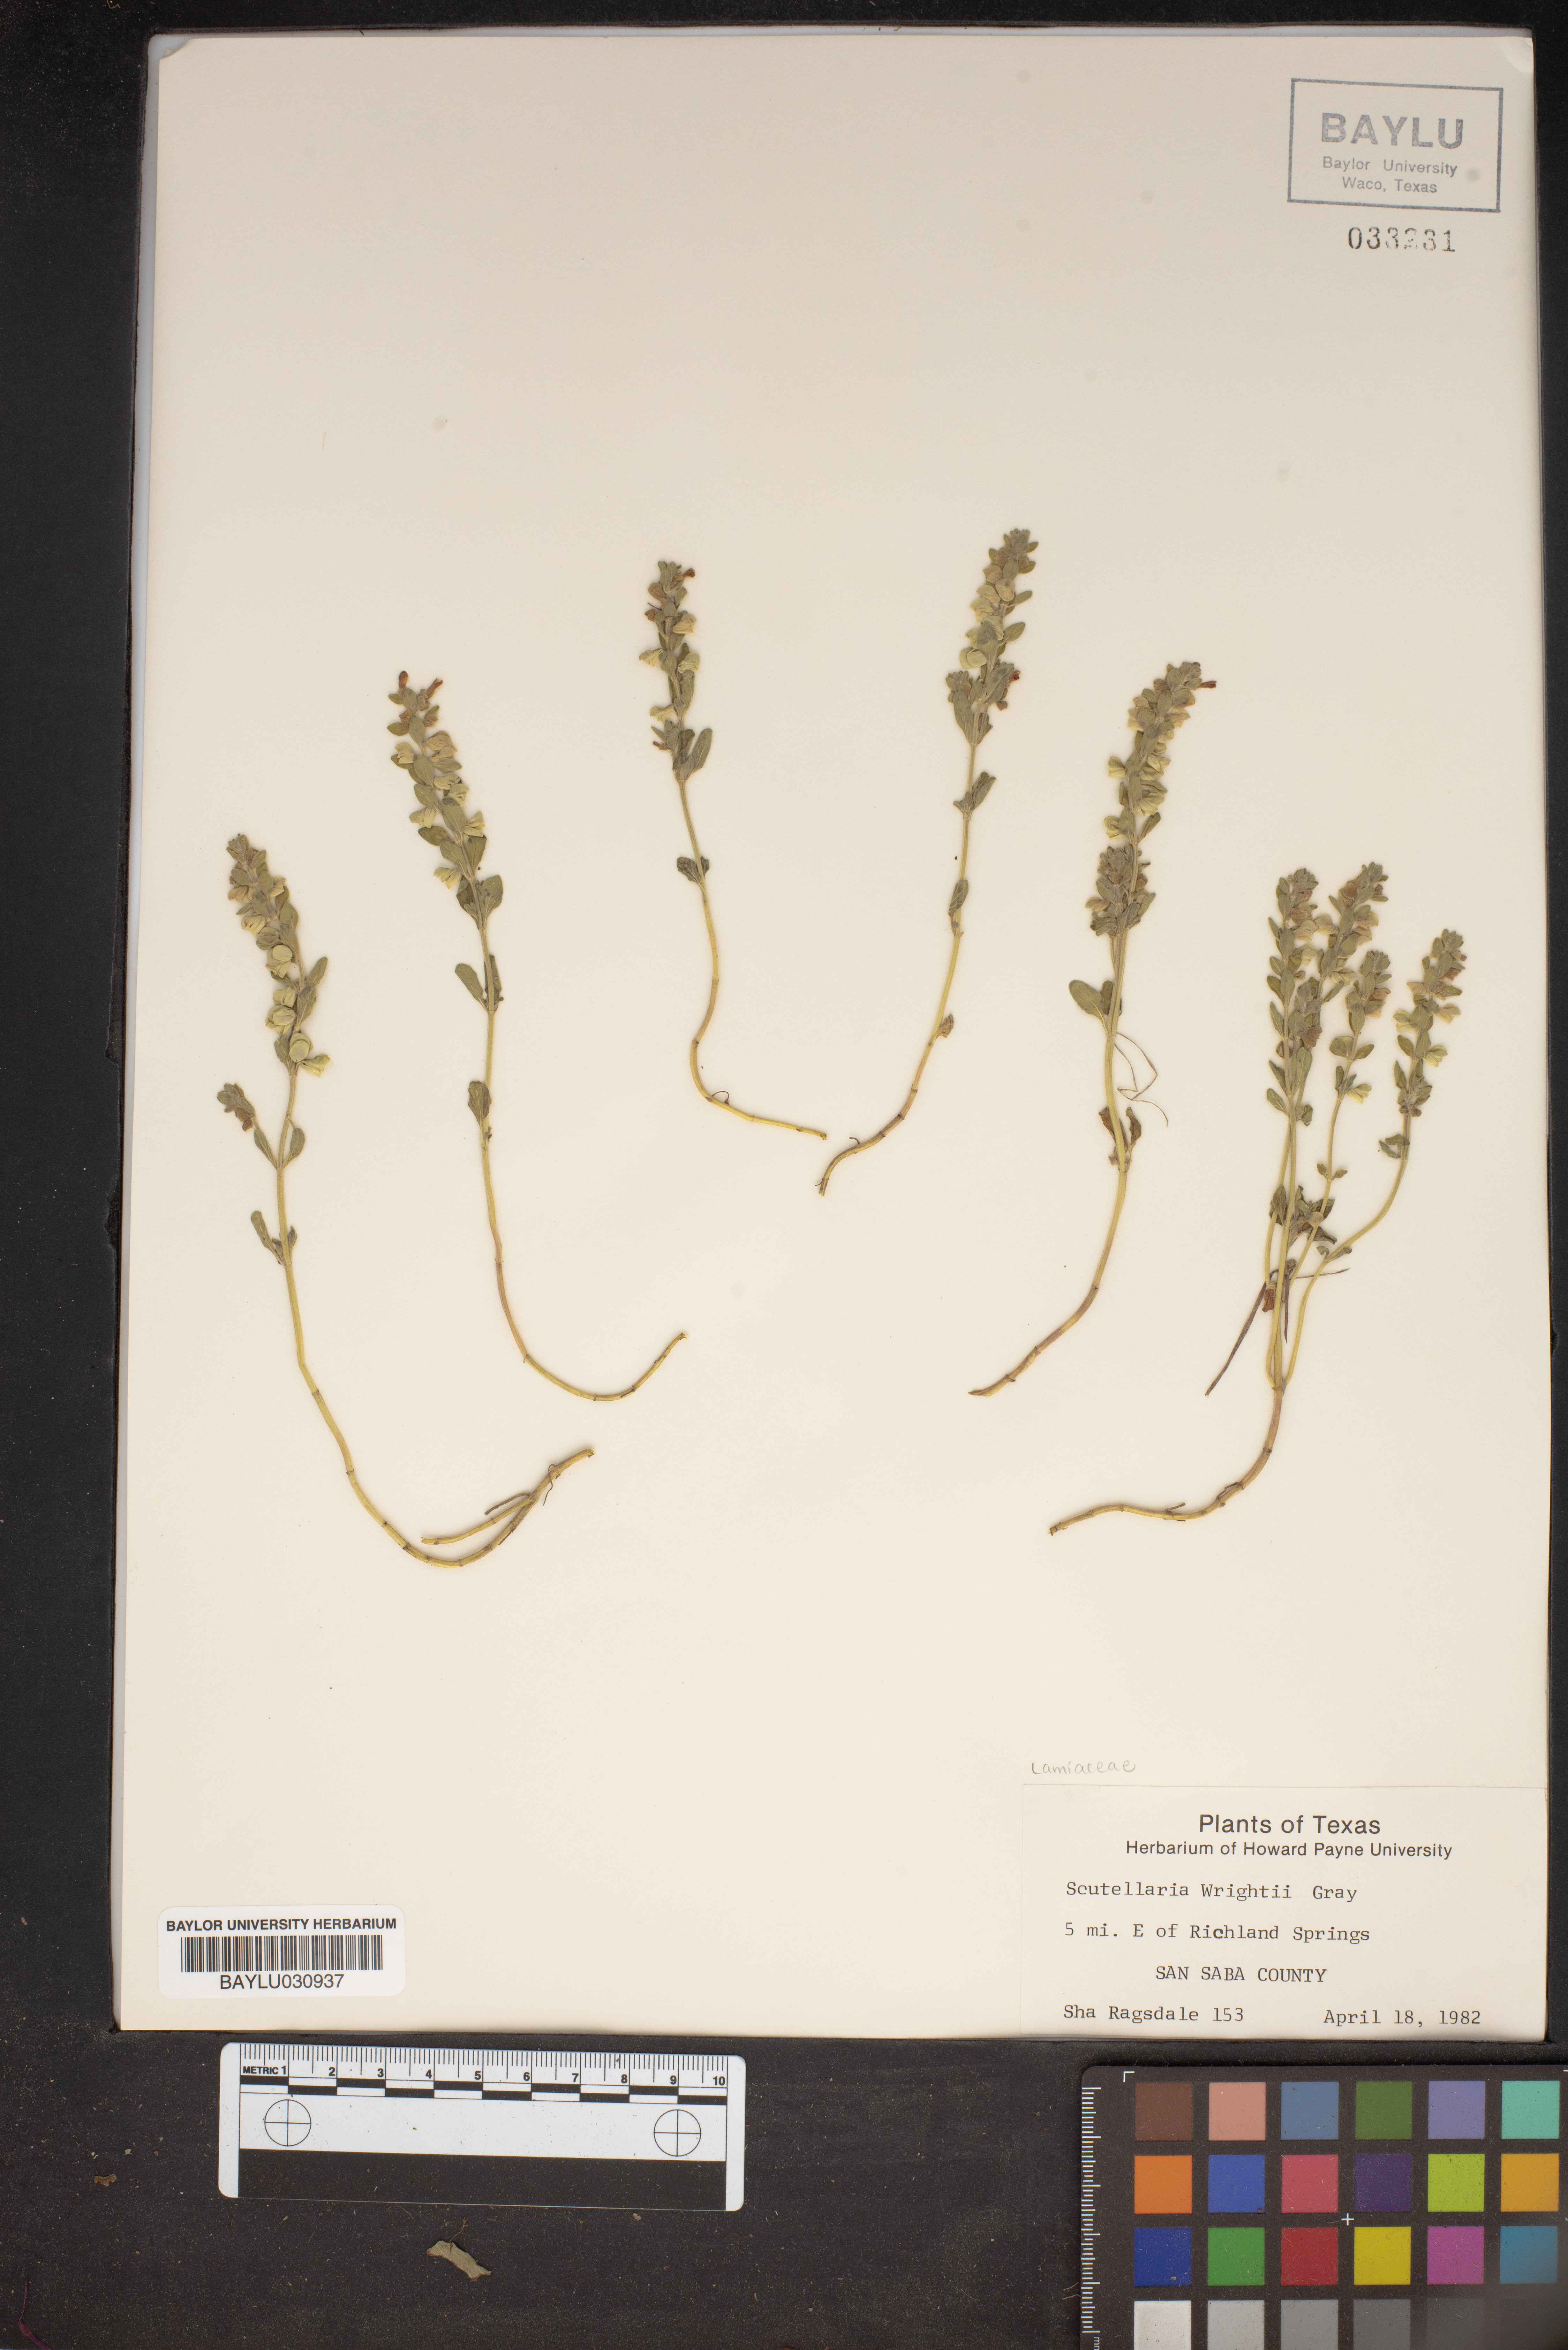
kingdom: Plantae
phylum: Tracheophyta
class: Magnoliopsida
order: Lamiales
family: Lamiaceae
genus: Scutellaria
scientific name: Scutellaria wrightii
